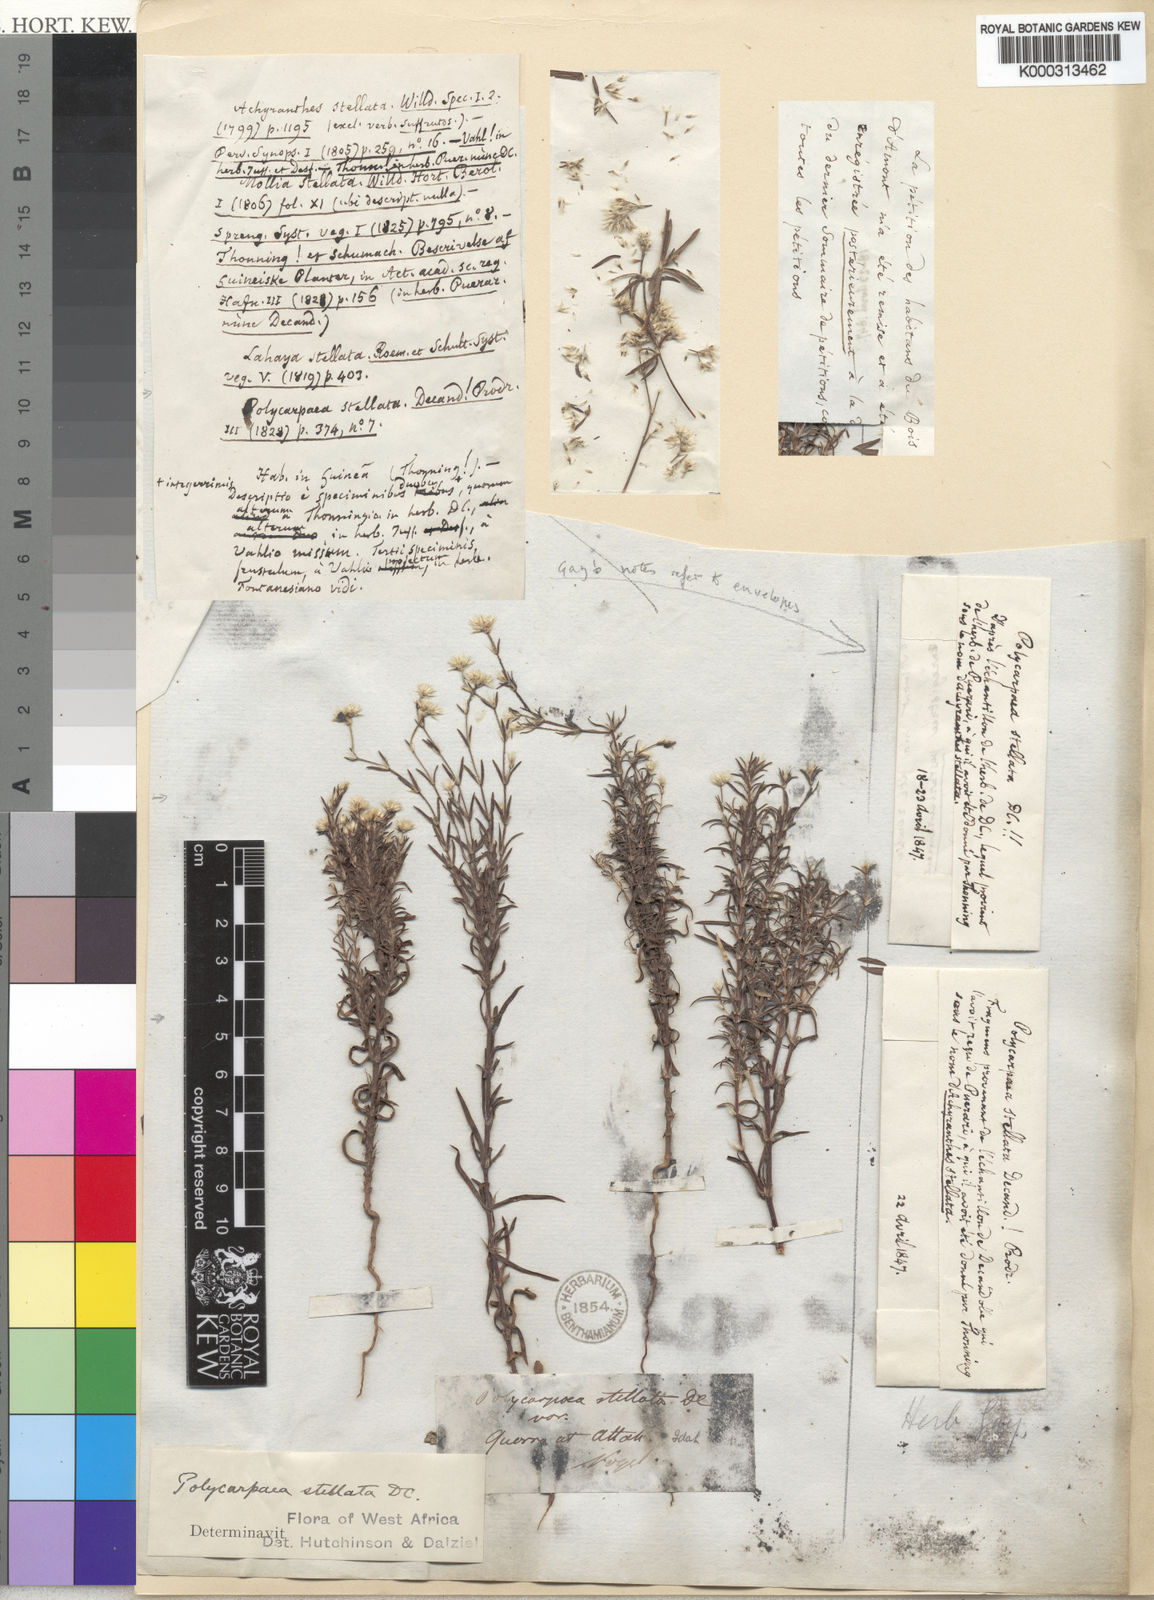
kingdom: Plantae
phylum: Tracheophyta
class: Magnoliopsida
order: Caryophyllales
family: Caryophyllaceae
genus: Polycarpaea
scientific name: Polycarpaea stellata
